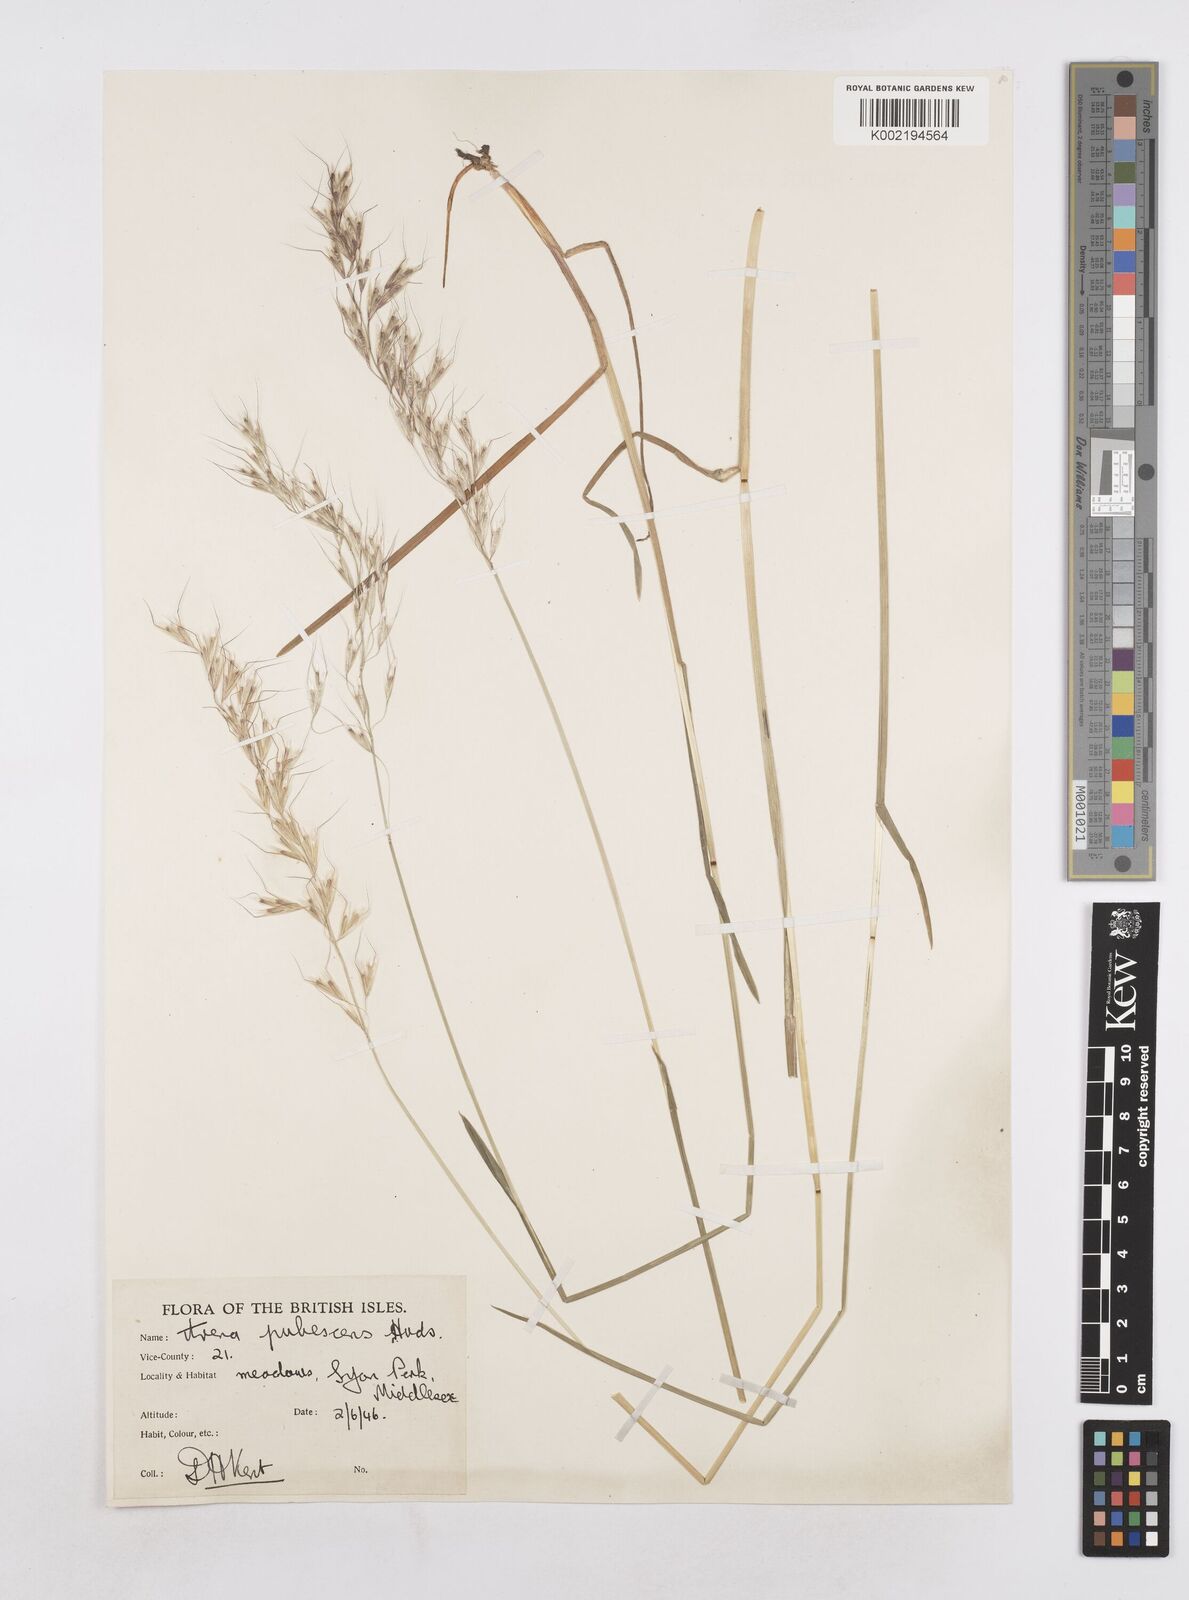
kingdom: Plantae
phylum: Tracheophyta
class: Liliopsida
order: Poales
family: Poaceae
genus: Avenula
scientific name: Avenula pubescens
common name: Downy alpine oatgrass
